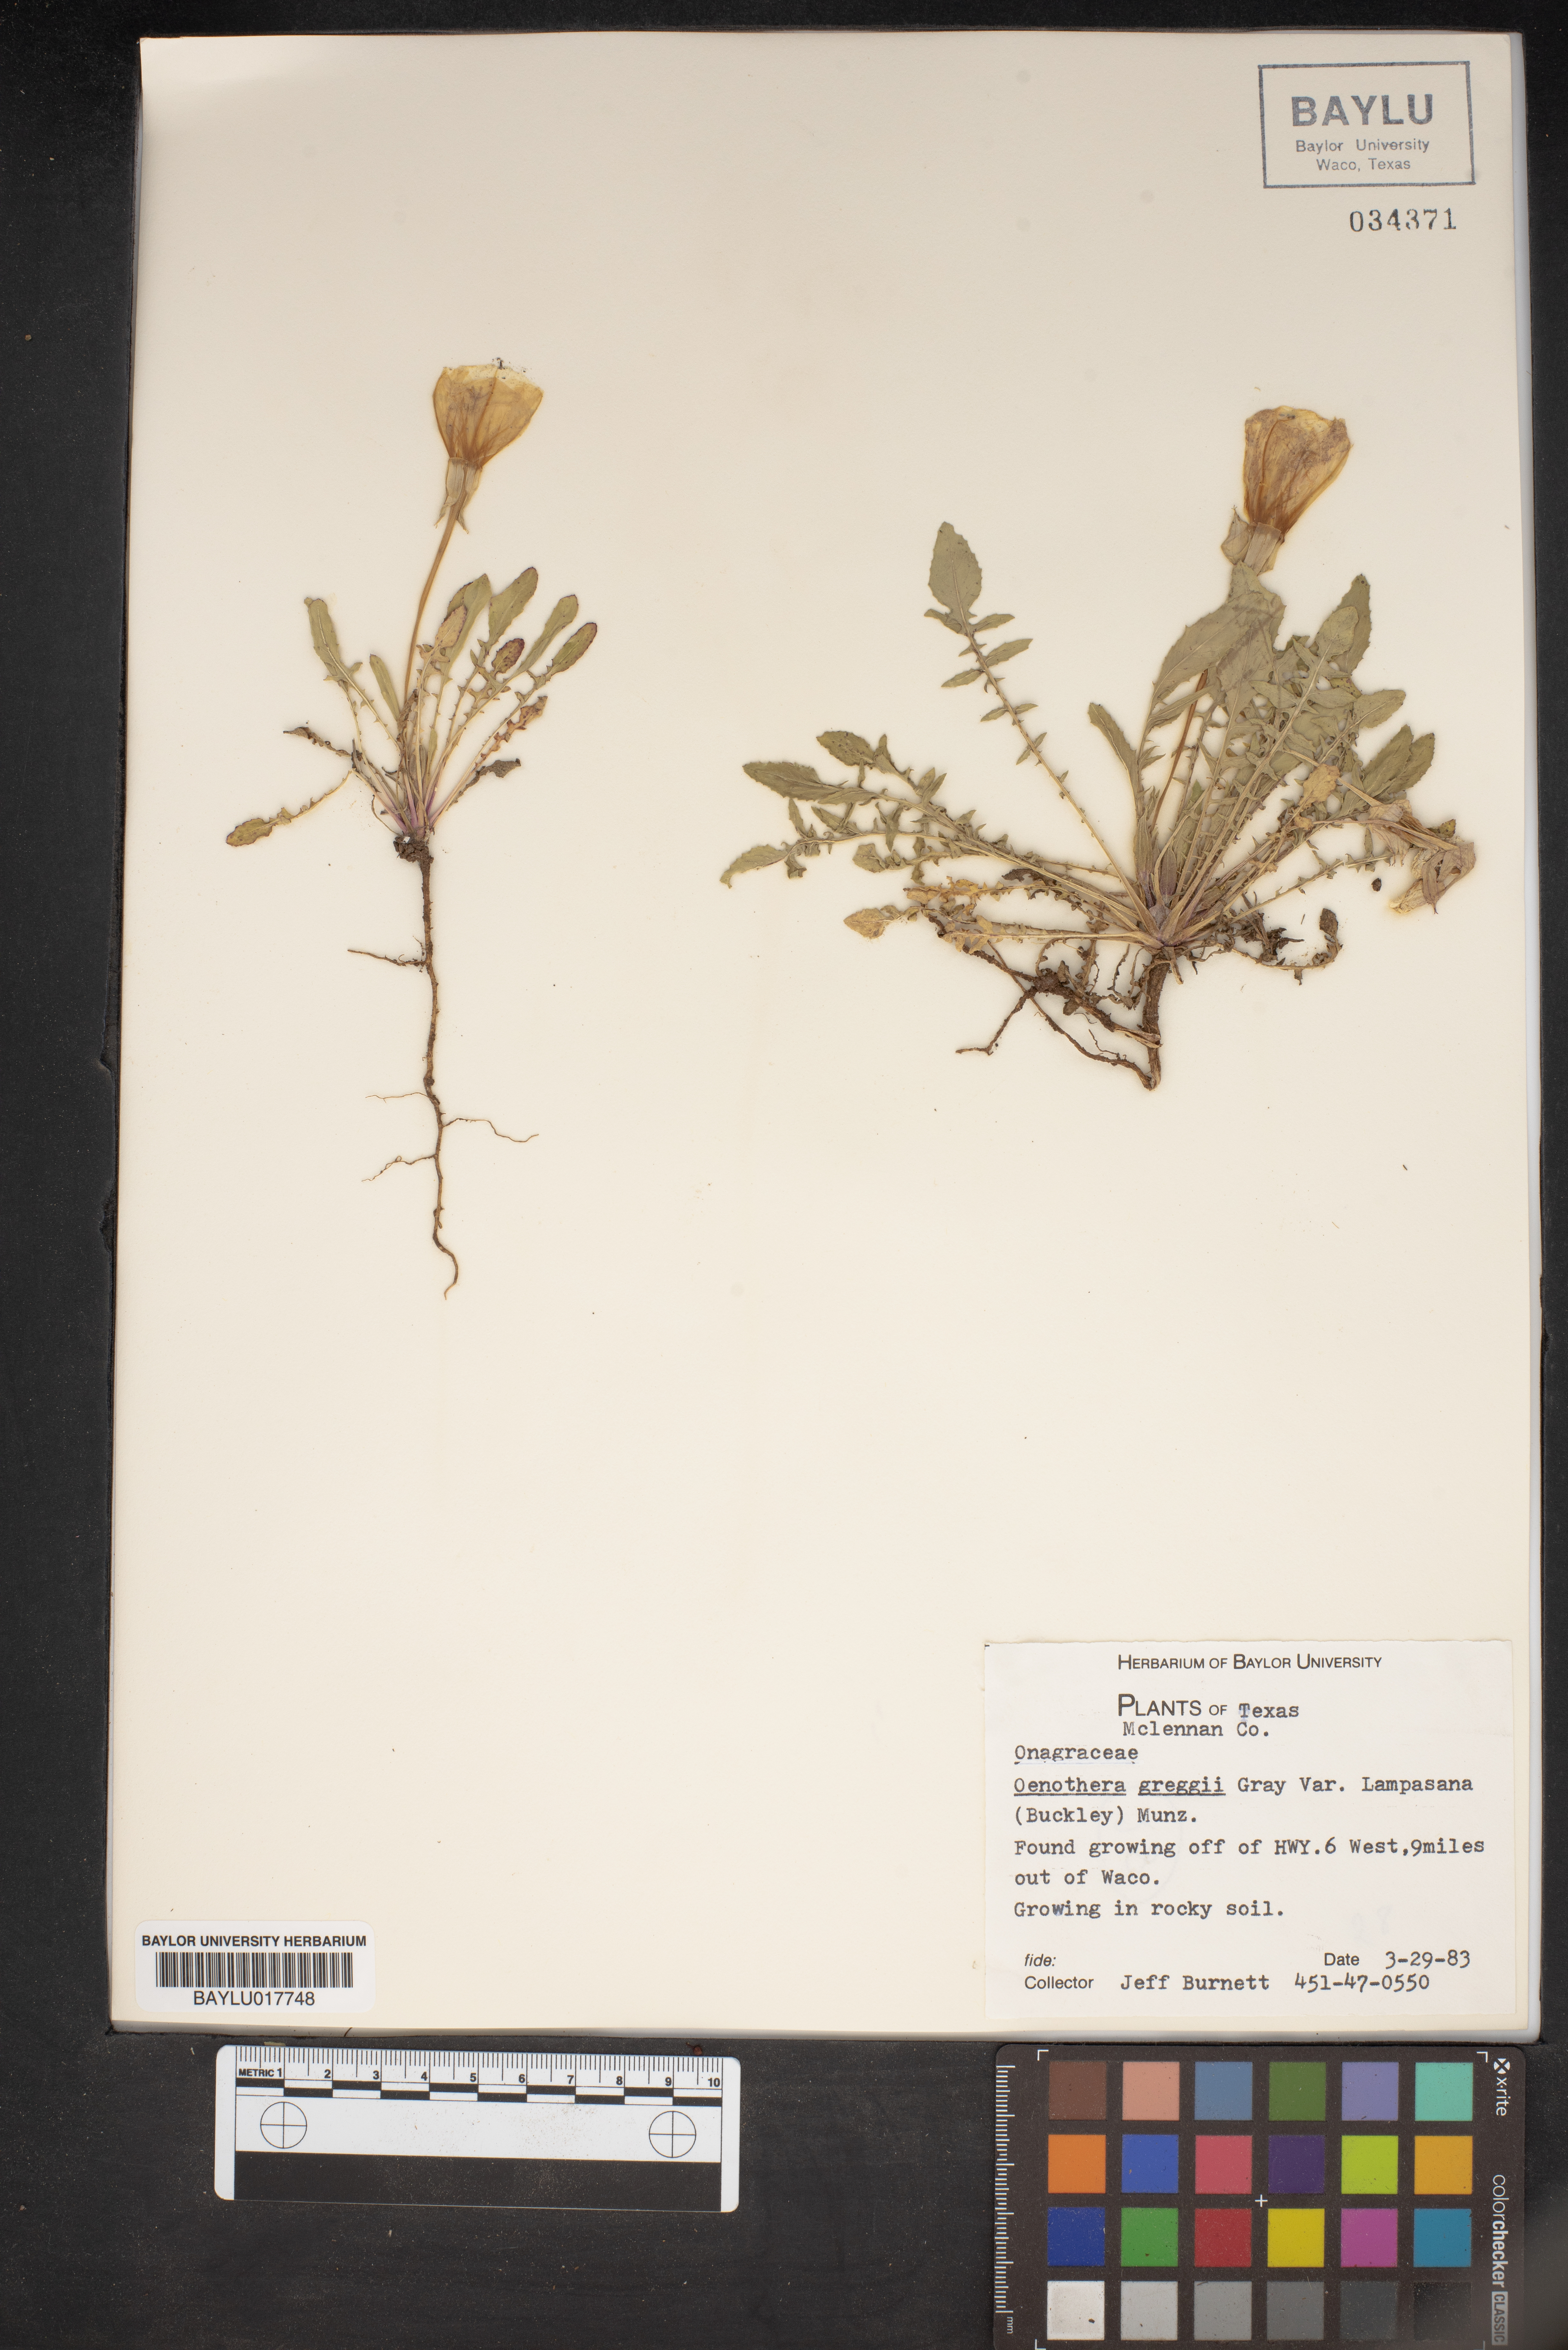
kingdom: Plantae
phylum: Tracheophyta
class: Magnoliopsida
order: Myrtales
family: Onagraceae
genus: Oenothera
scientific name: Oenothera hartwegii
